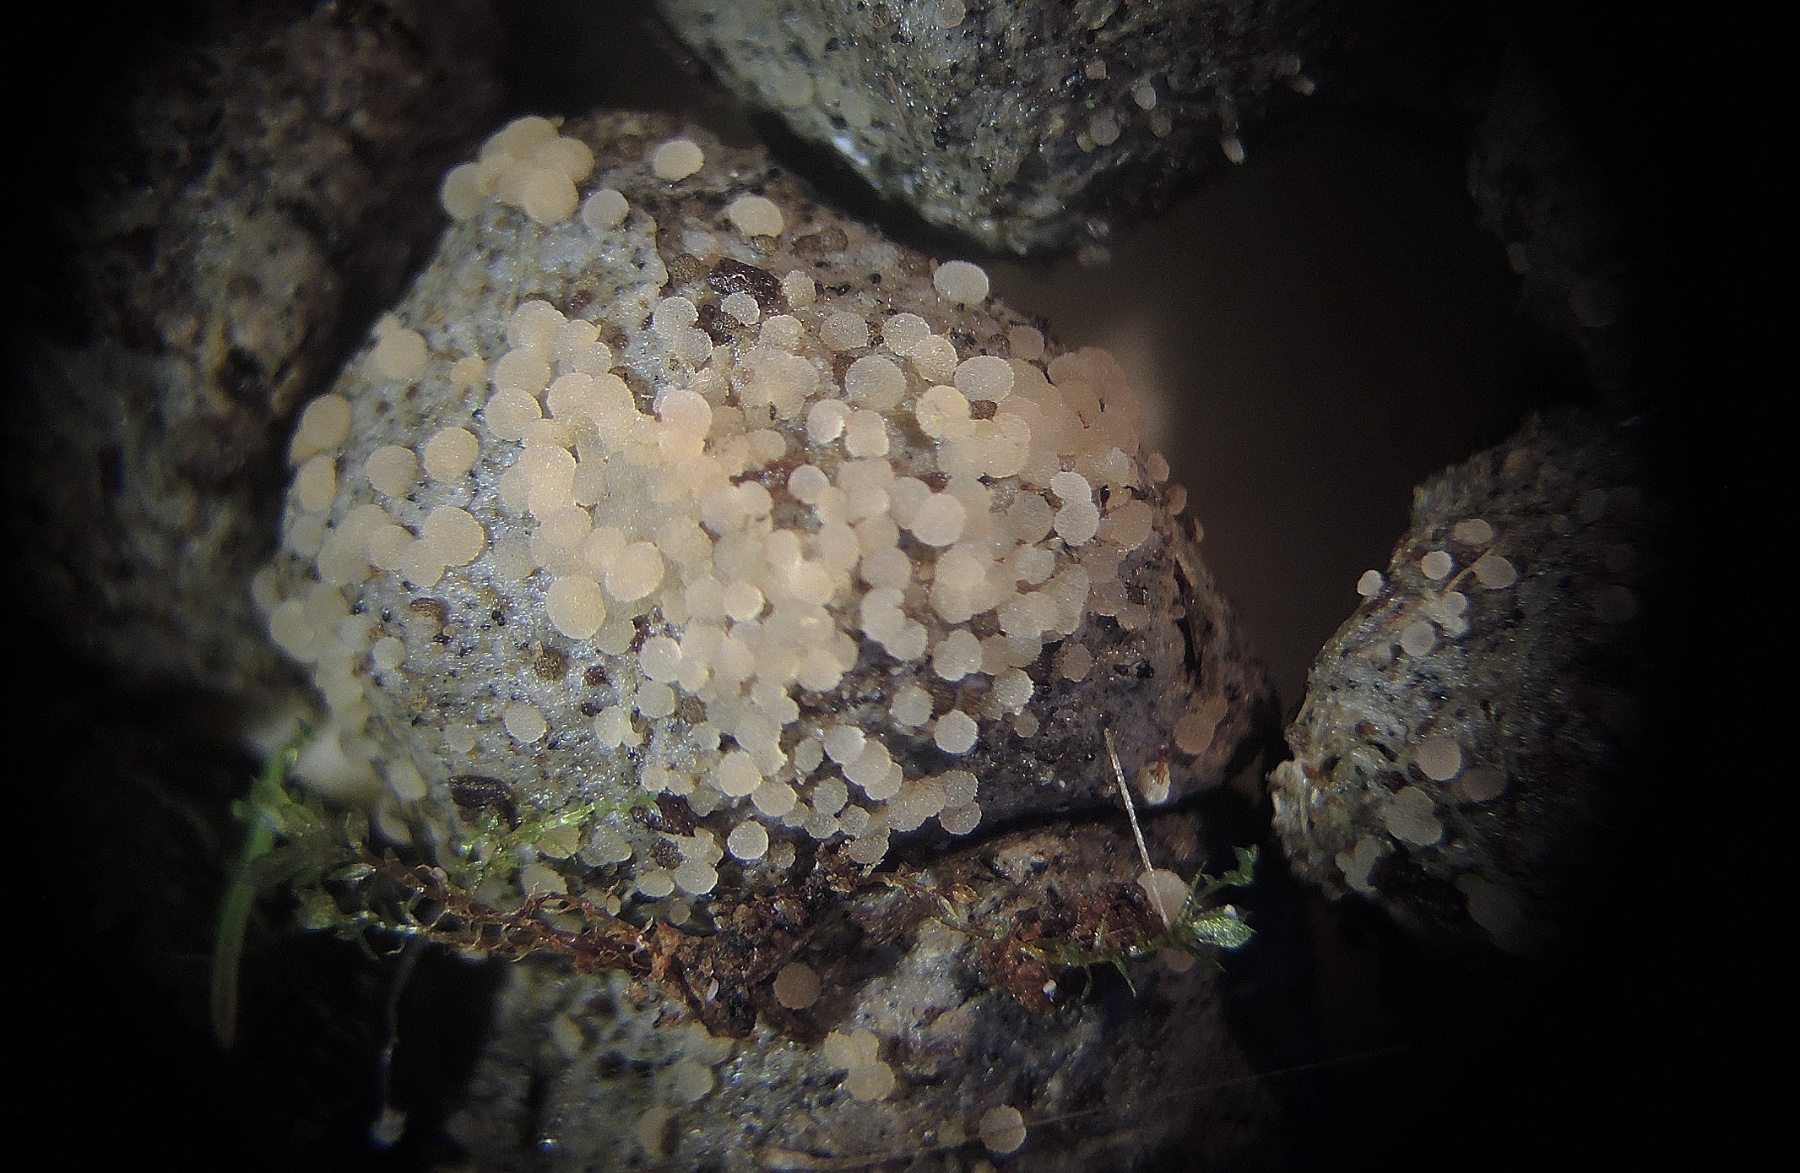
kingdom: Fungi
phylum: Ascomycota
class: Pezizomycetes
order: Pezizales
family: Pezizaceae
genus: Iodophanus
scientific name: Iodophanus carneus
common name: kødfarvet prikbæger
